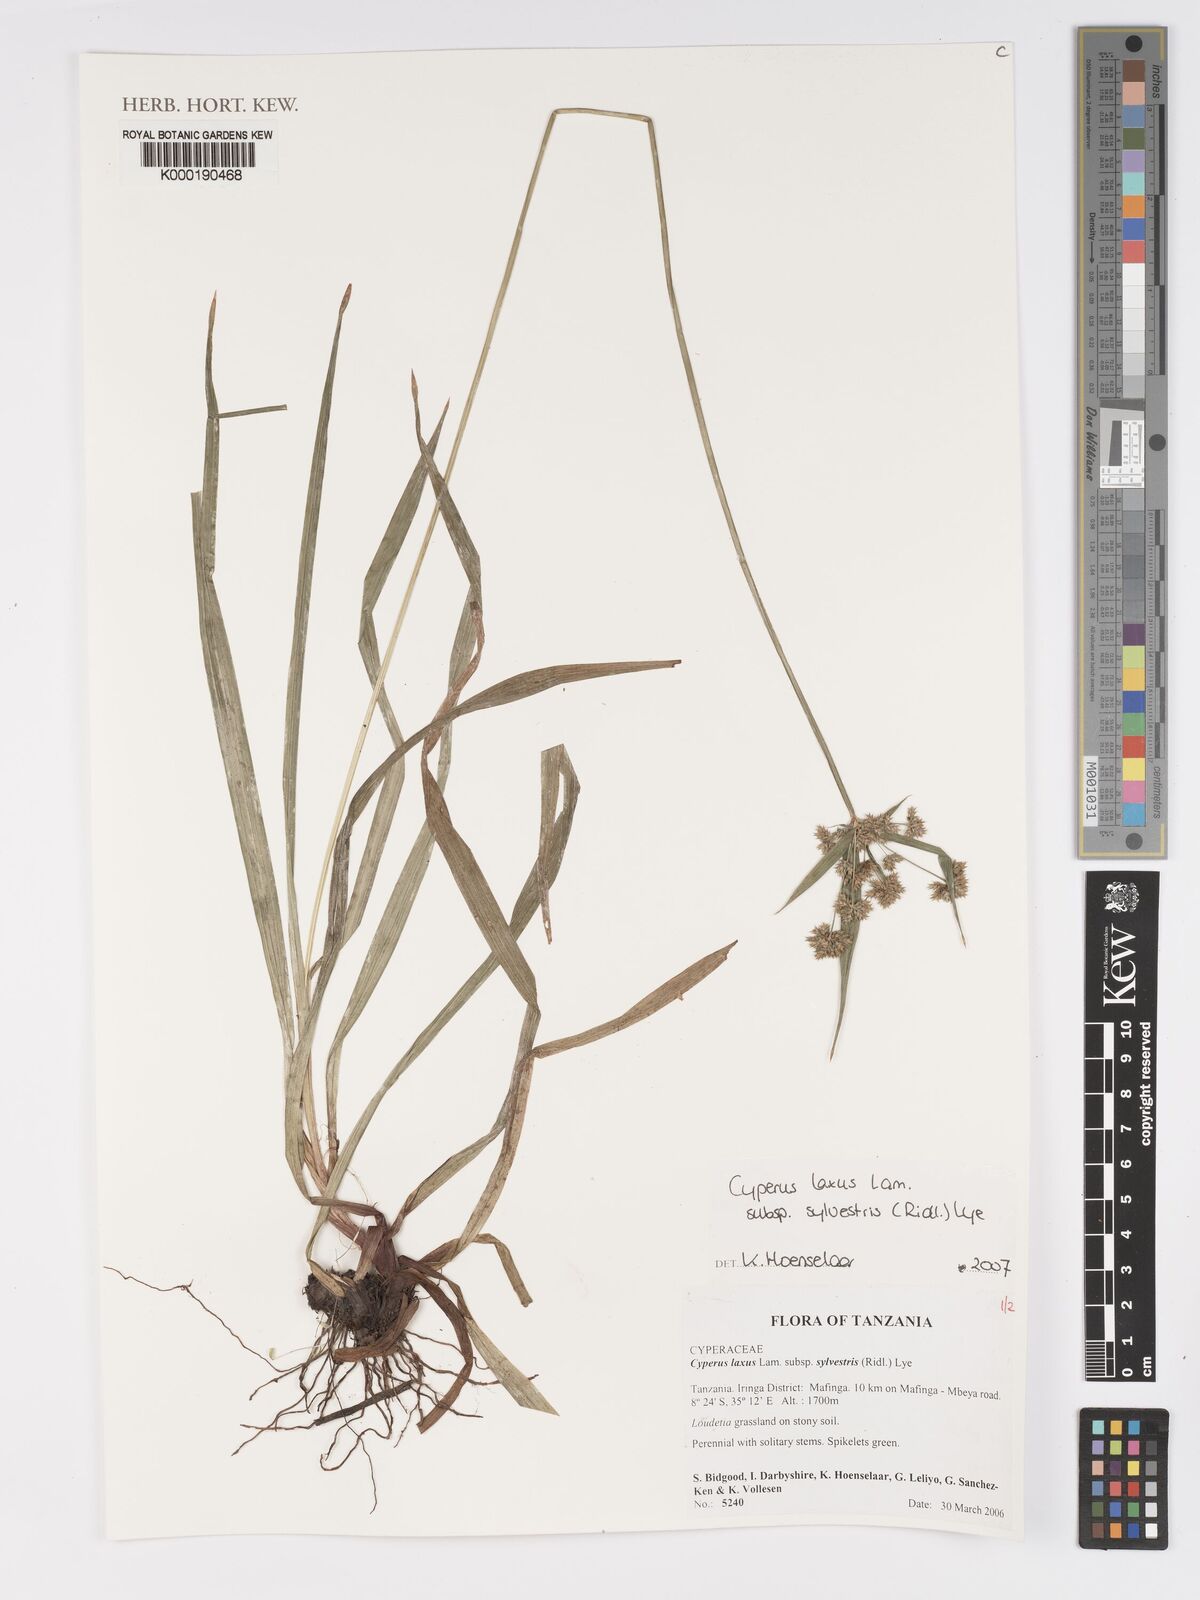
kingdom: Plantae
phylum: Tracheophyta
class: Liliopsida
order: Poales
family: Cyperaceae
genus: Cyperus
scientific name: Cyperus sylvestris
